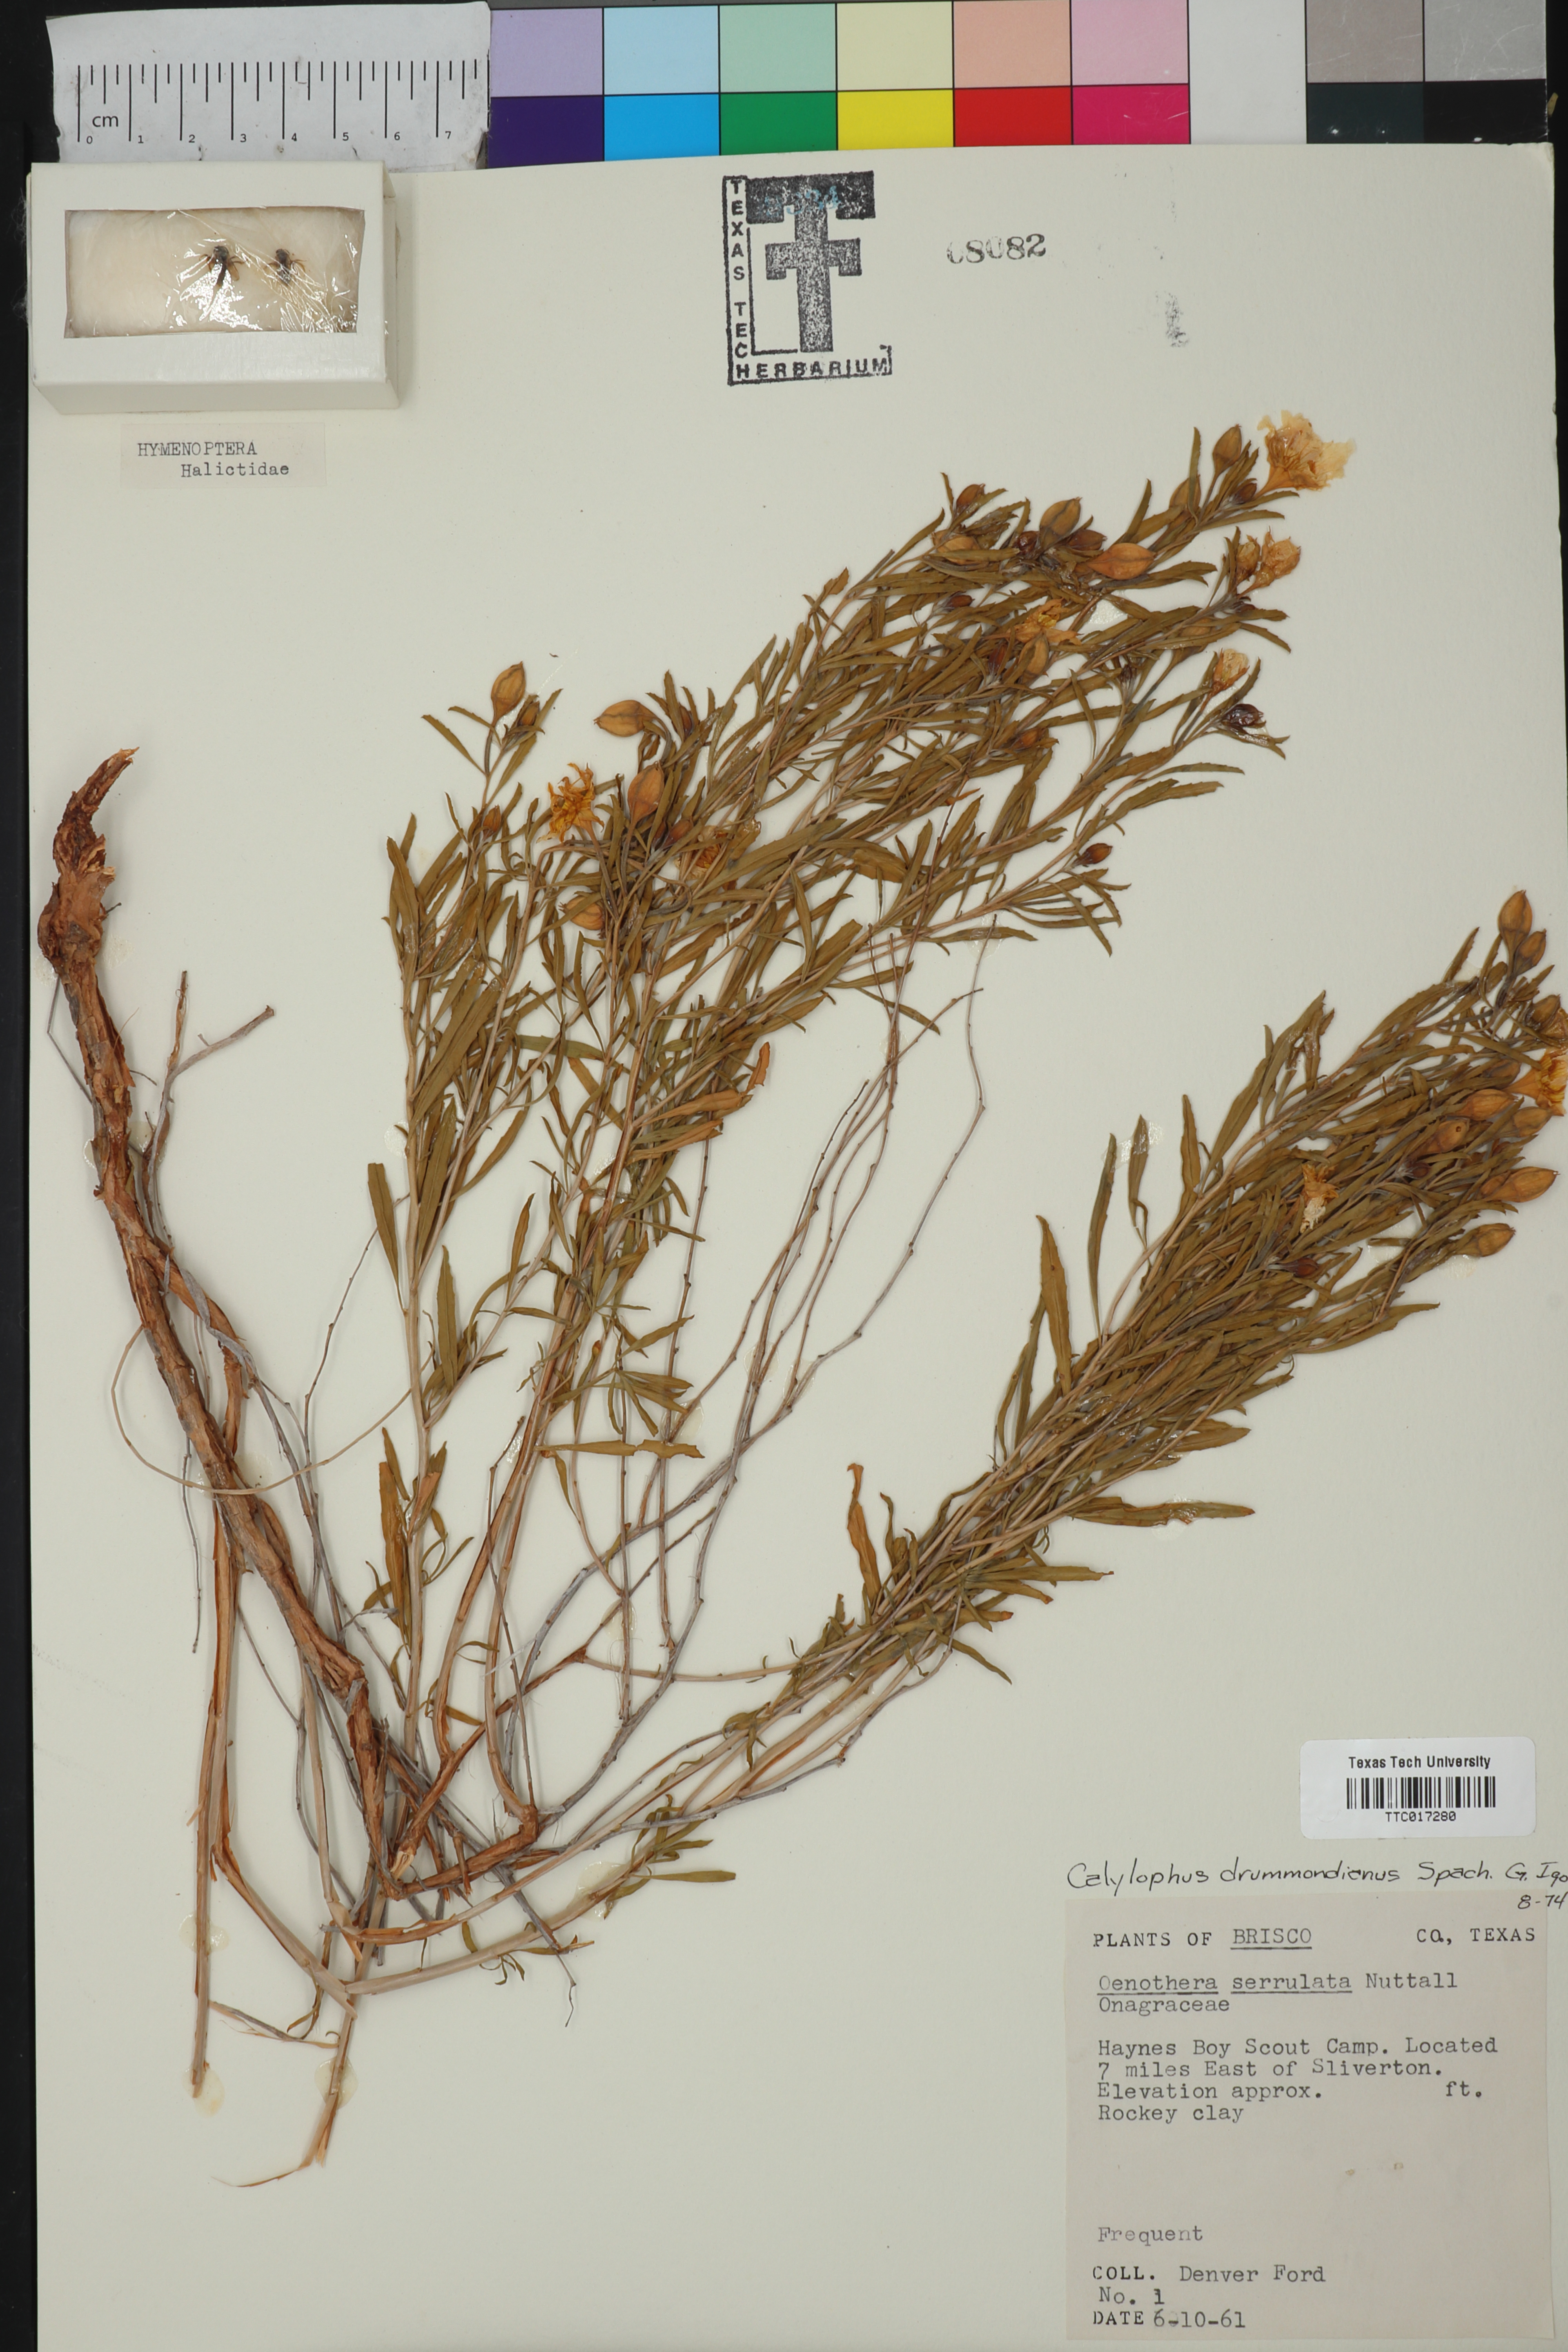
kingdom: Plantae
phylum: Tracheophyta
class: Magnoliopsida
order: Myrtales
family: Onagraceae
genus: Oenothera
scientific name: Oenothera serrulata
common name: Half-shrub calylophus
